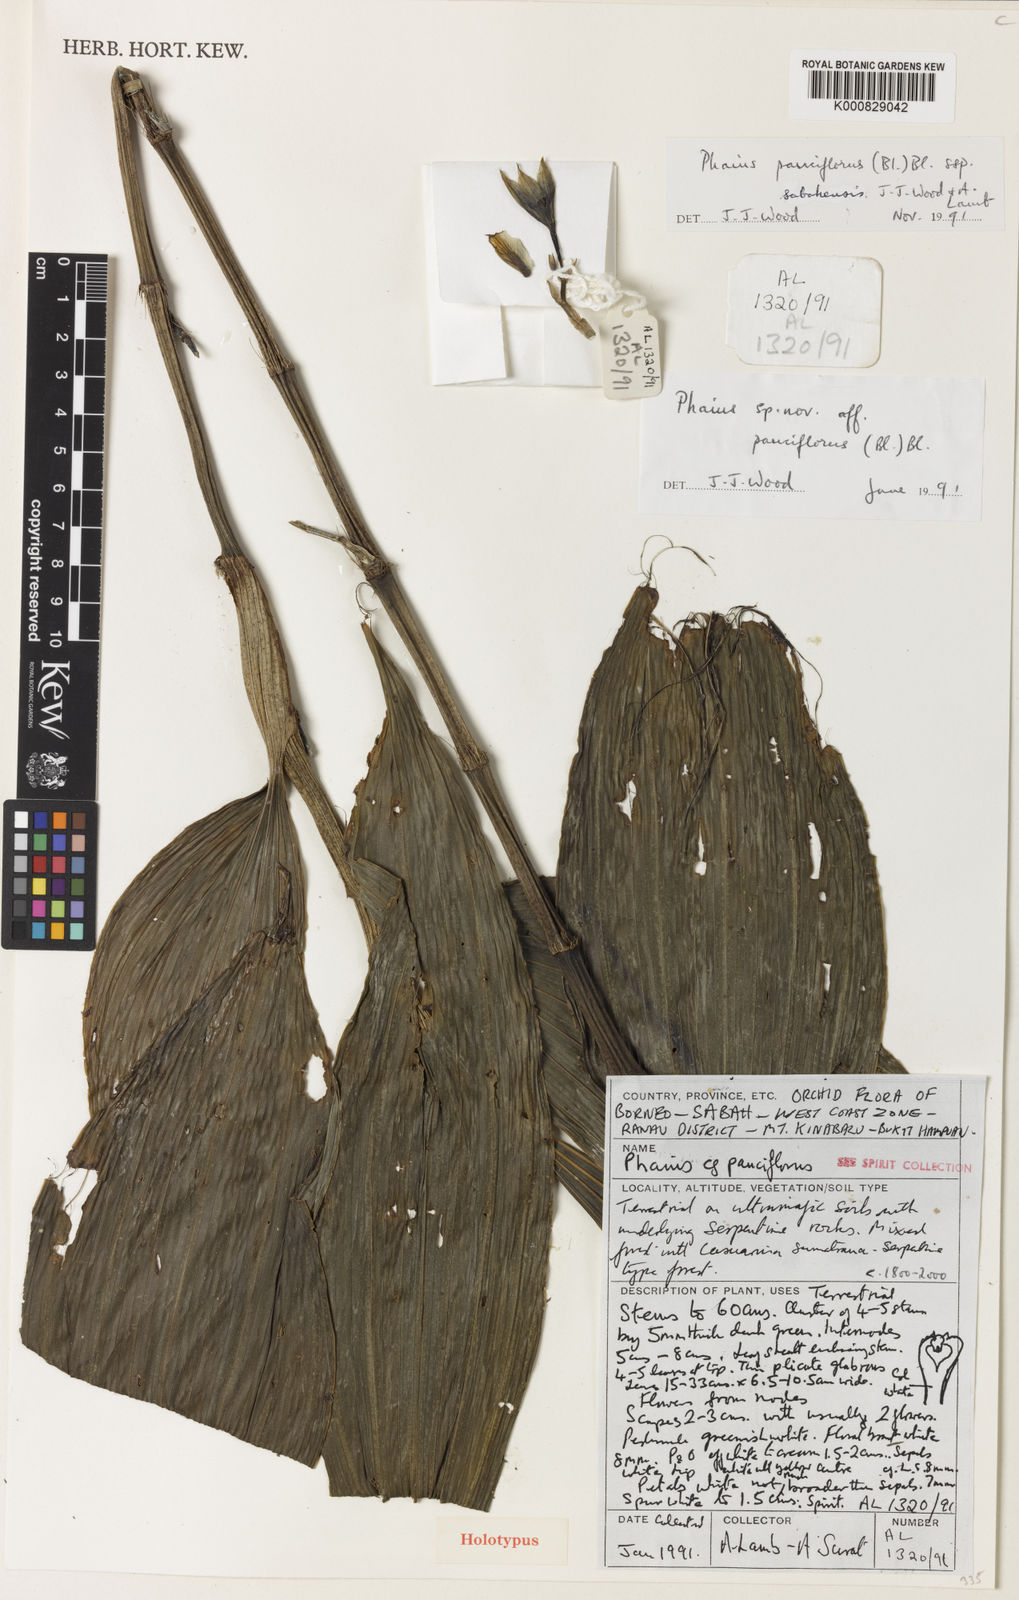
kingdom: Plantae
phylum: Tracheophyta
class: Liliopsida
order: Asparagales
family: Orchidaceae
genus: Calanthe
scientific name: Calanthe pauciflora
